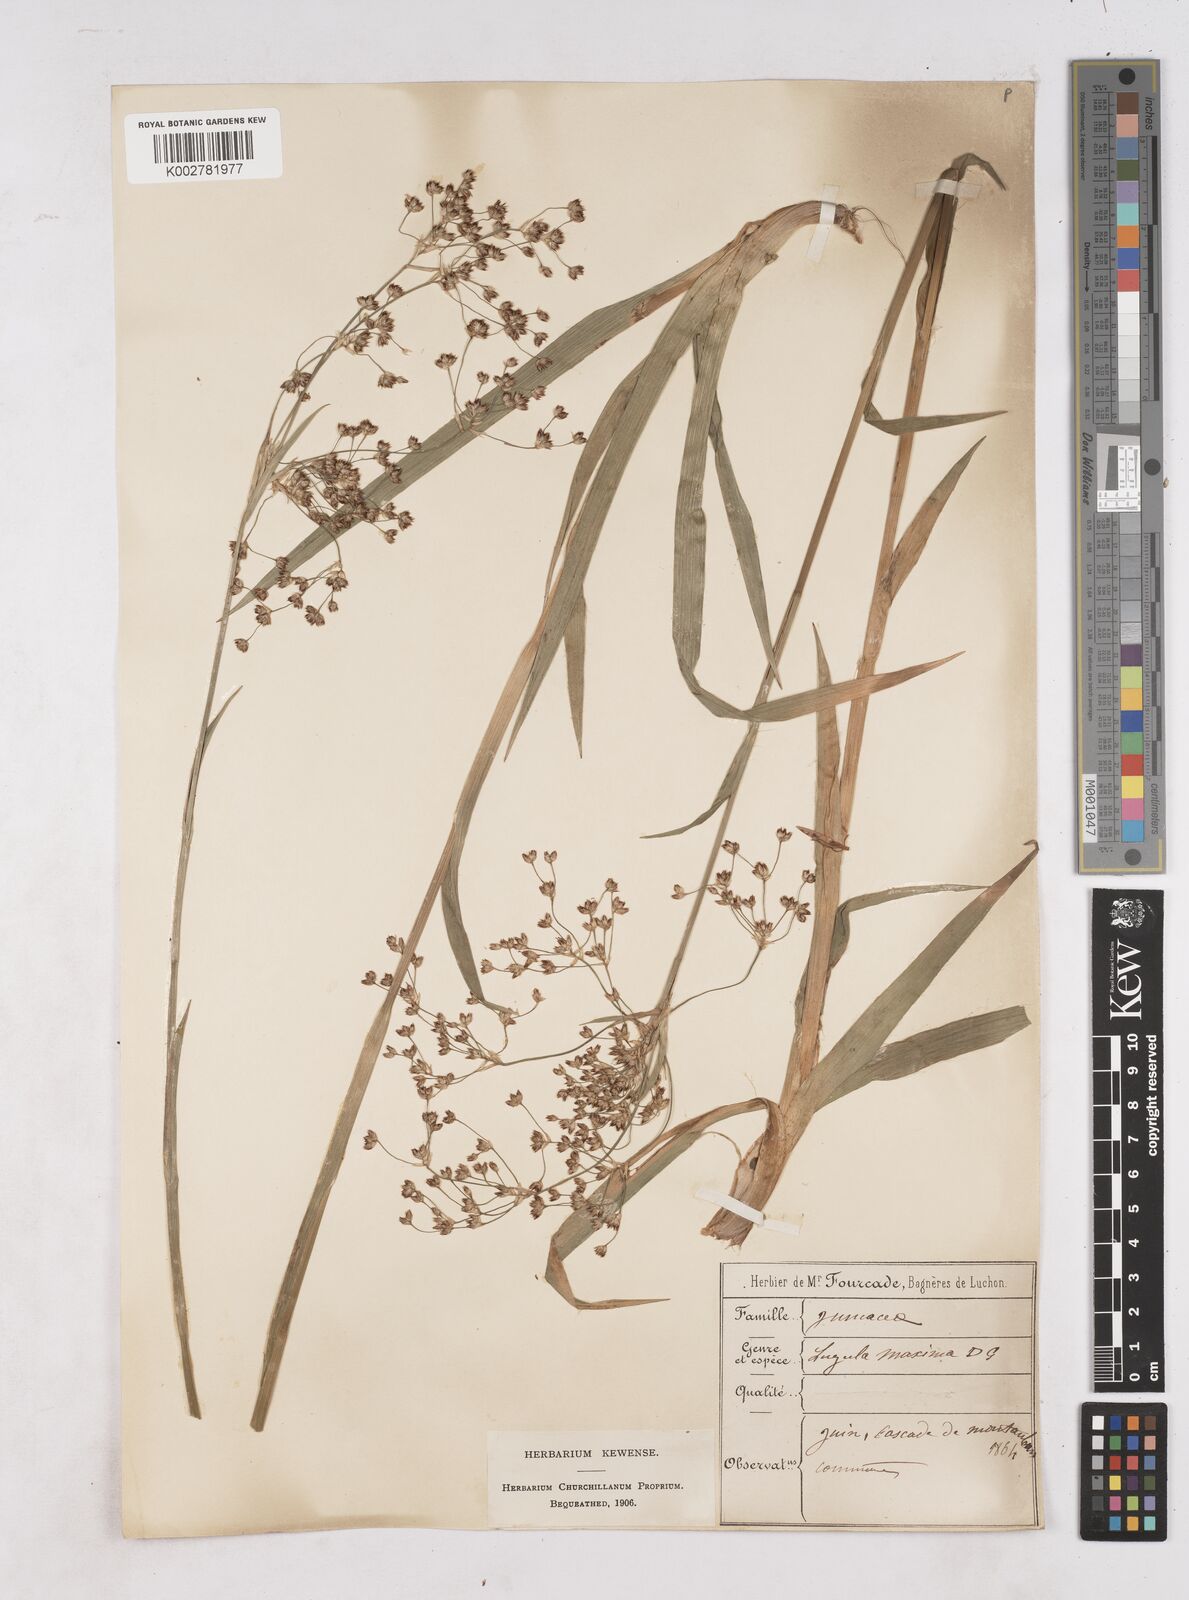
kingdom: Plantae
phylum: Tracheophyta
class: Liliopsida
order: Poales
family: Juncaceae
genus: Luzula
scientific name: Luzula sylvatica
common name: Great wood-rush
